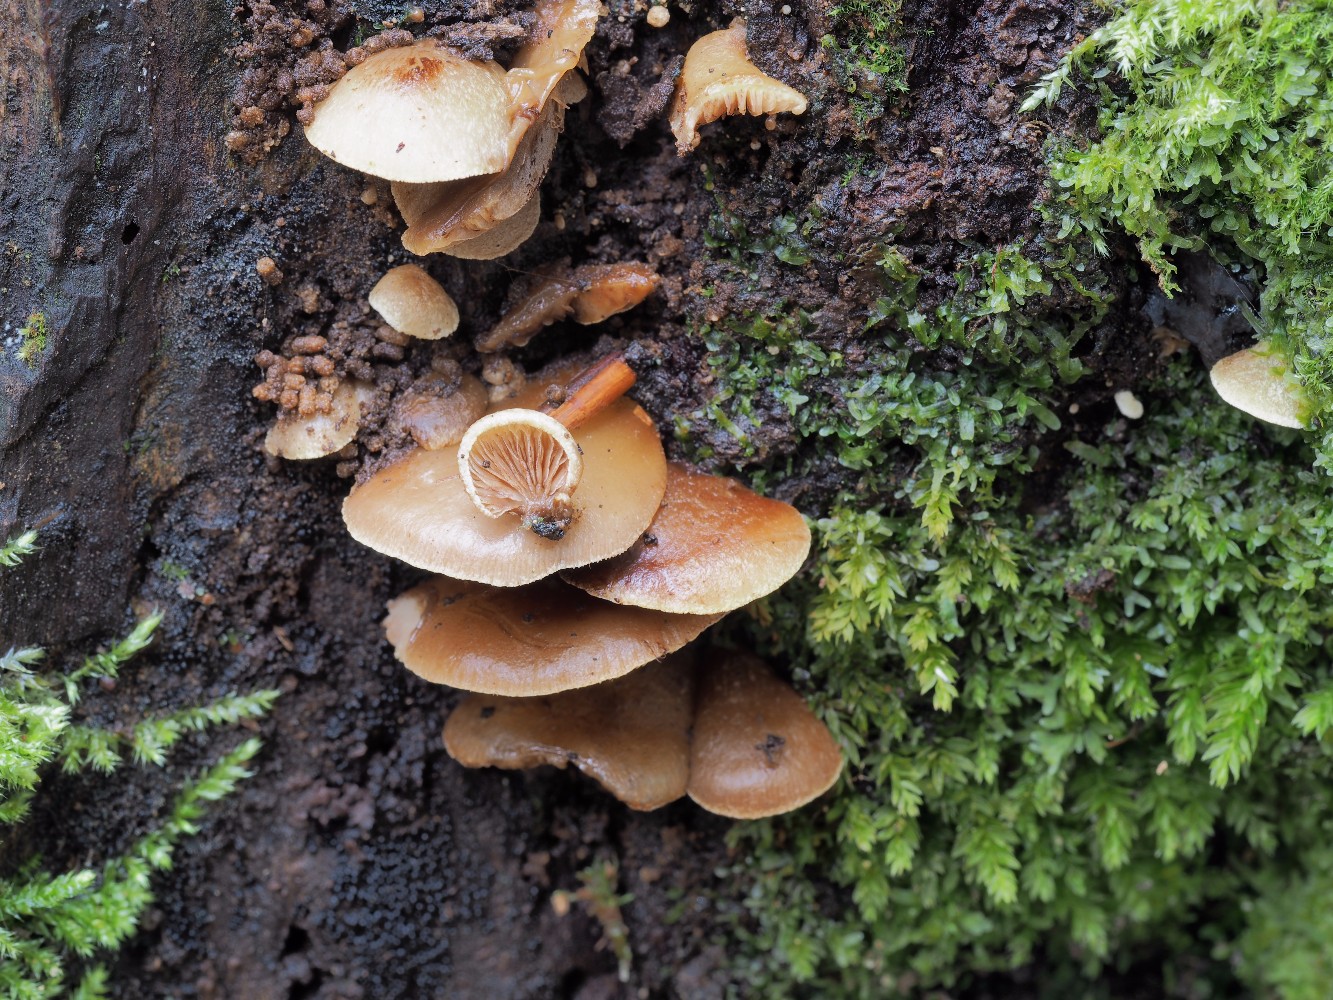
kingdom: Fungi
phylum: Basidiomycota
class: Agaricomycetes
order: Agaricales
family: Crepidotaceae
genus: Crepidotus
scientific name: Crepidotus mollis
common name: blød muslingesvamp
